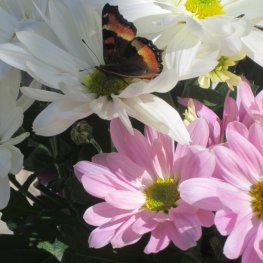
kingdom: Animalia
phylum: Arthropoda
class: Insecta
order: Lepidoptera
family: Nymphalidae
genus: Aglais
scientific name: Aglais milberti
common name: Milbert's Tortoiseshell
